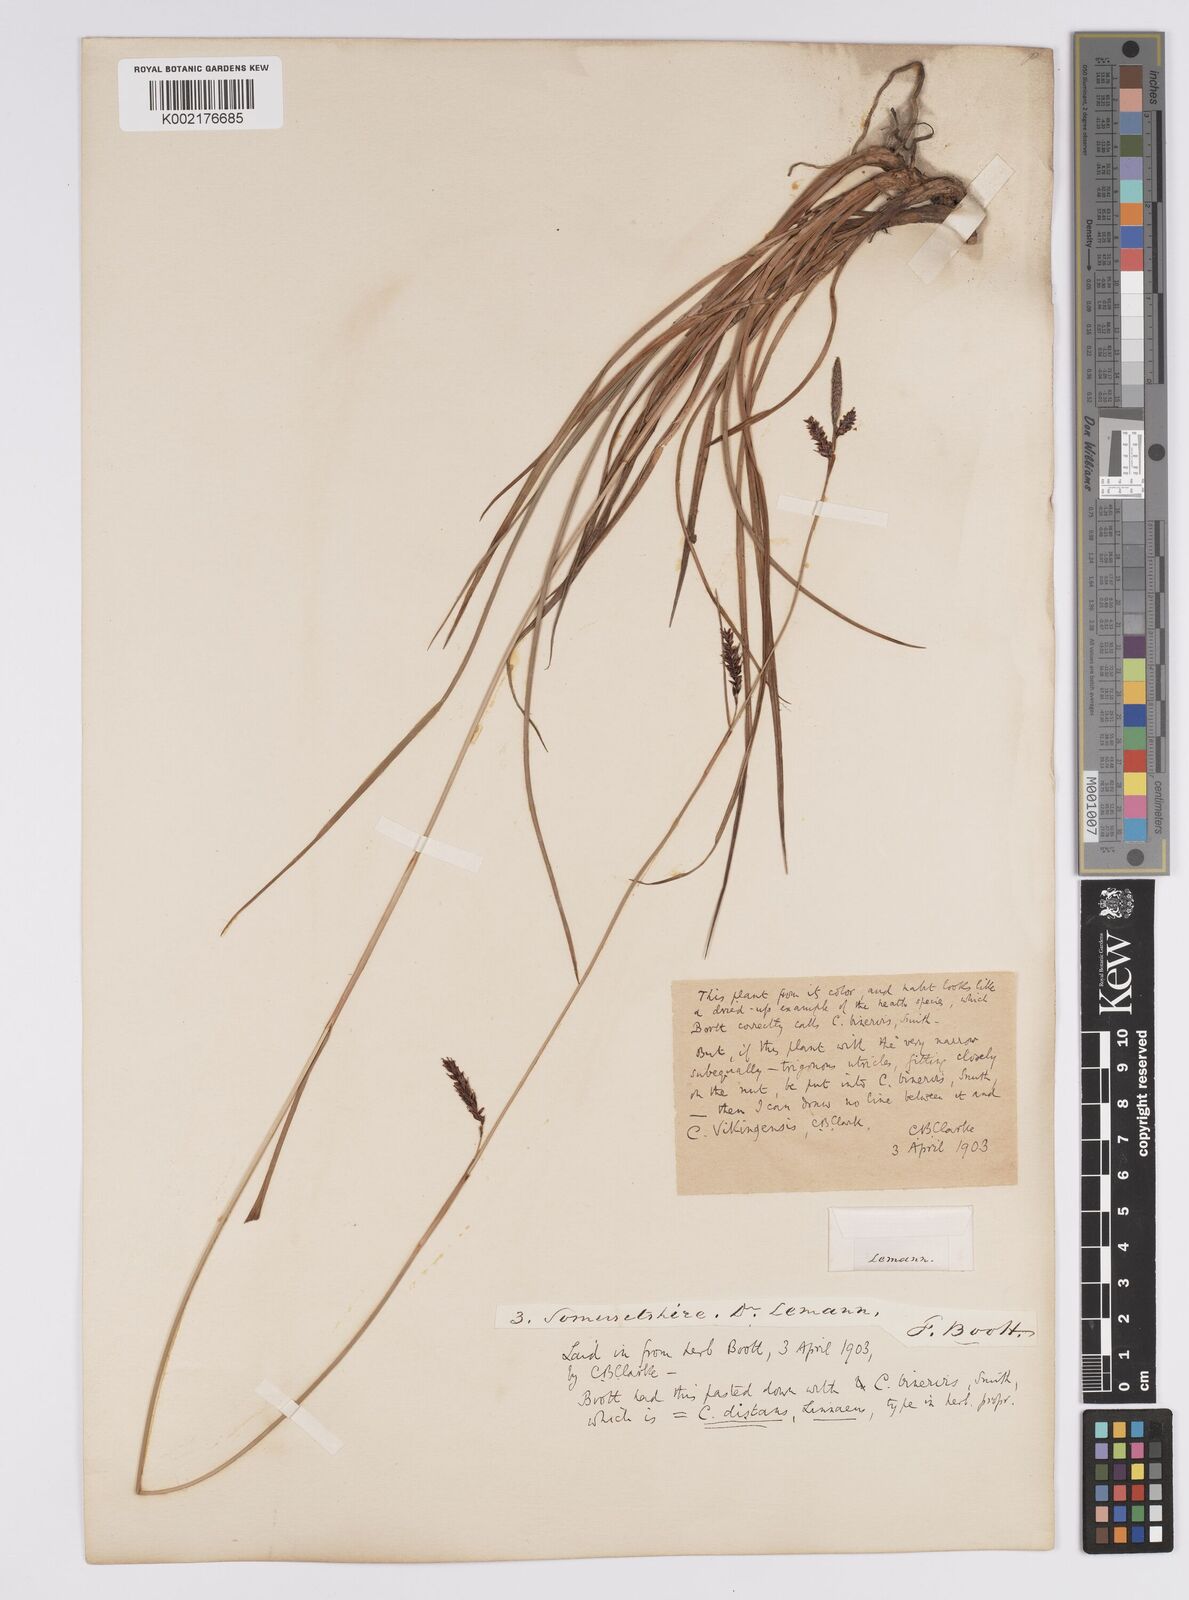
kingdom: Plantae
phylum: Tracheophyta
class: Liliopsida
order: Poales
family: Cyperaceae
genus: Carex
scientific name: Carex binervis
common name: Green-ribbed sedge
